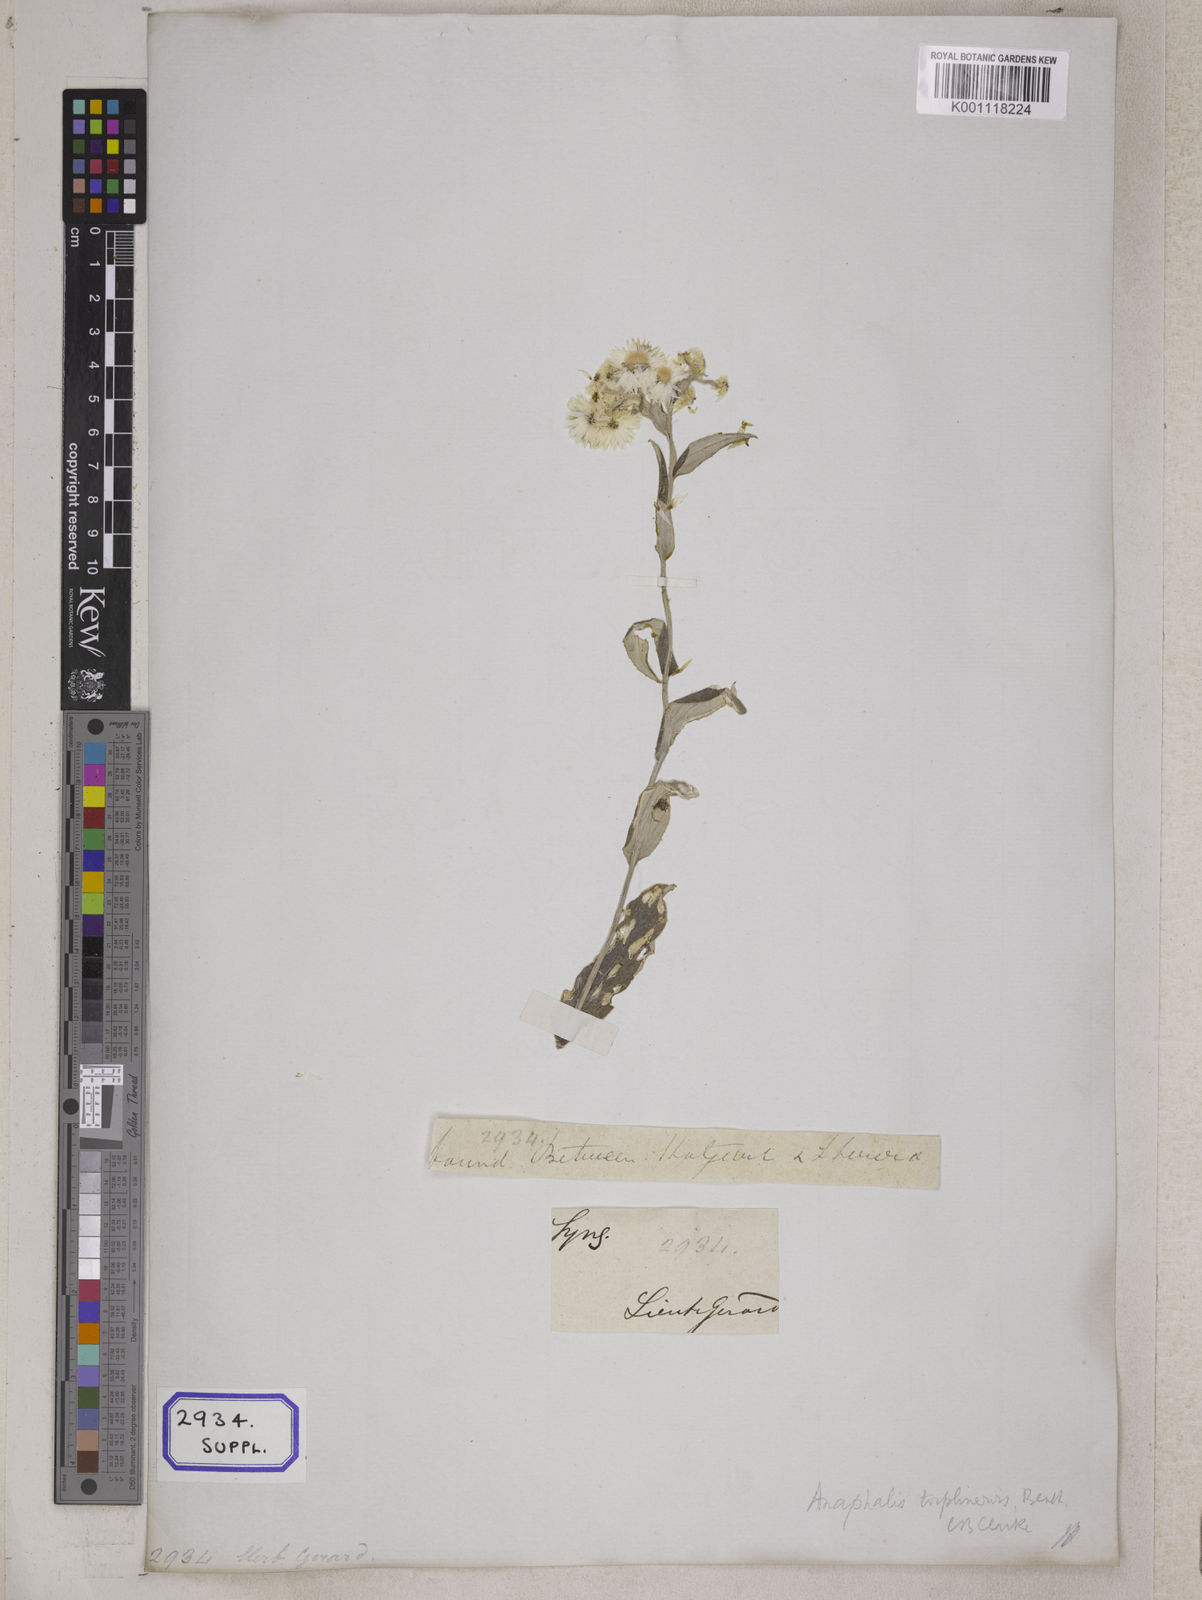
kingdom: Plantae
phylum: Tracheophyta
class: Magnoliopsida
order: Asterales
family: Asteraceae
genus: Anaphalis
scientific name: Anaphalis nepalensis
